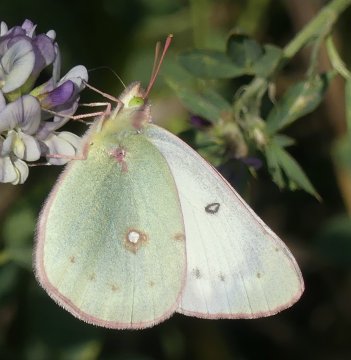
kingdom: Animalia
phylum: Arthropoda
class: Insecta
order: Lepidoptera
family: Pieridae
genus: Colias
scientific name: Colias philodice
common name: Clouded Sulphur
